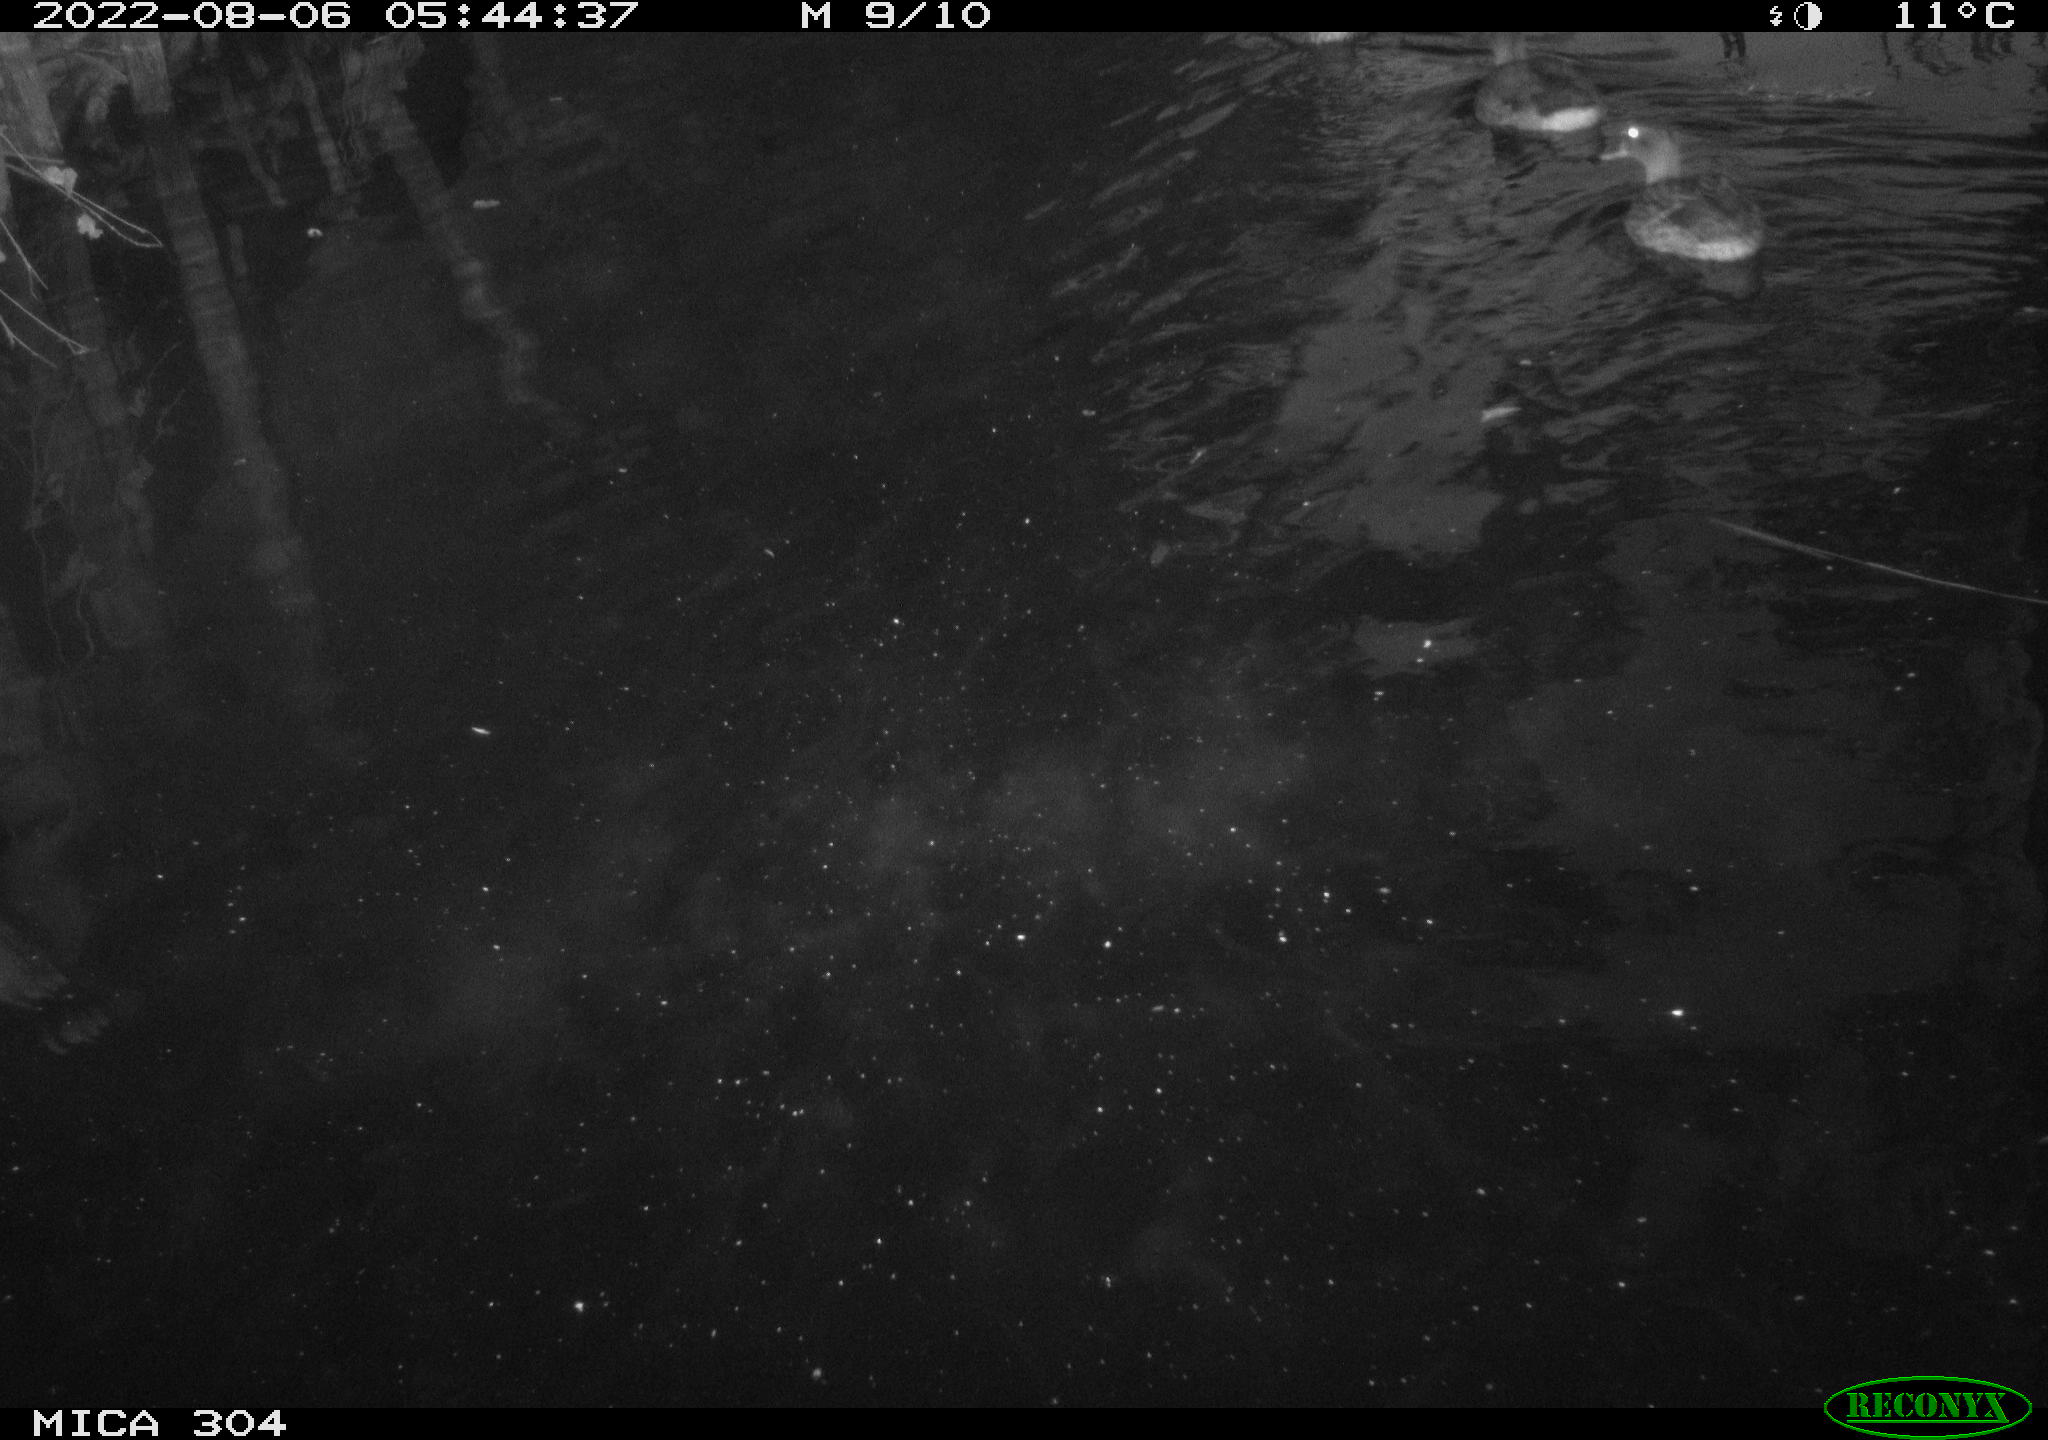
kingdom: Animalia
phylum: Chordata
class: Aves
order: Anseriformes
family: Anatidae
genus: Anas
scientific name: Anas platyrhynchos
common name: Mallard
